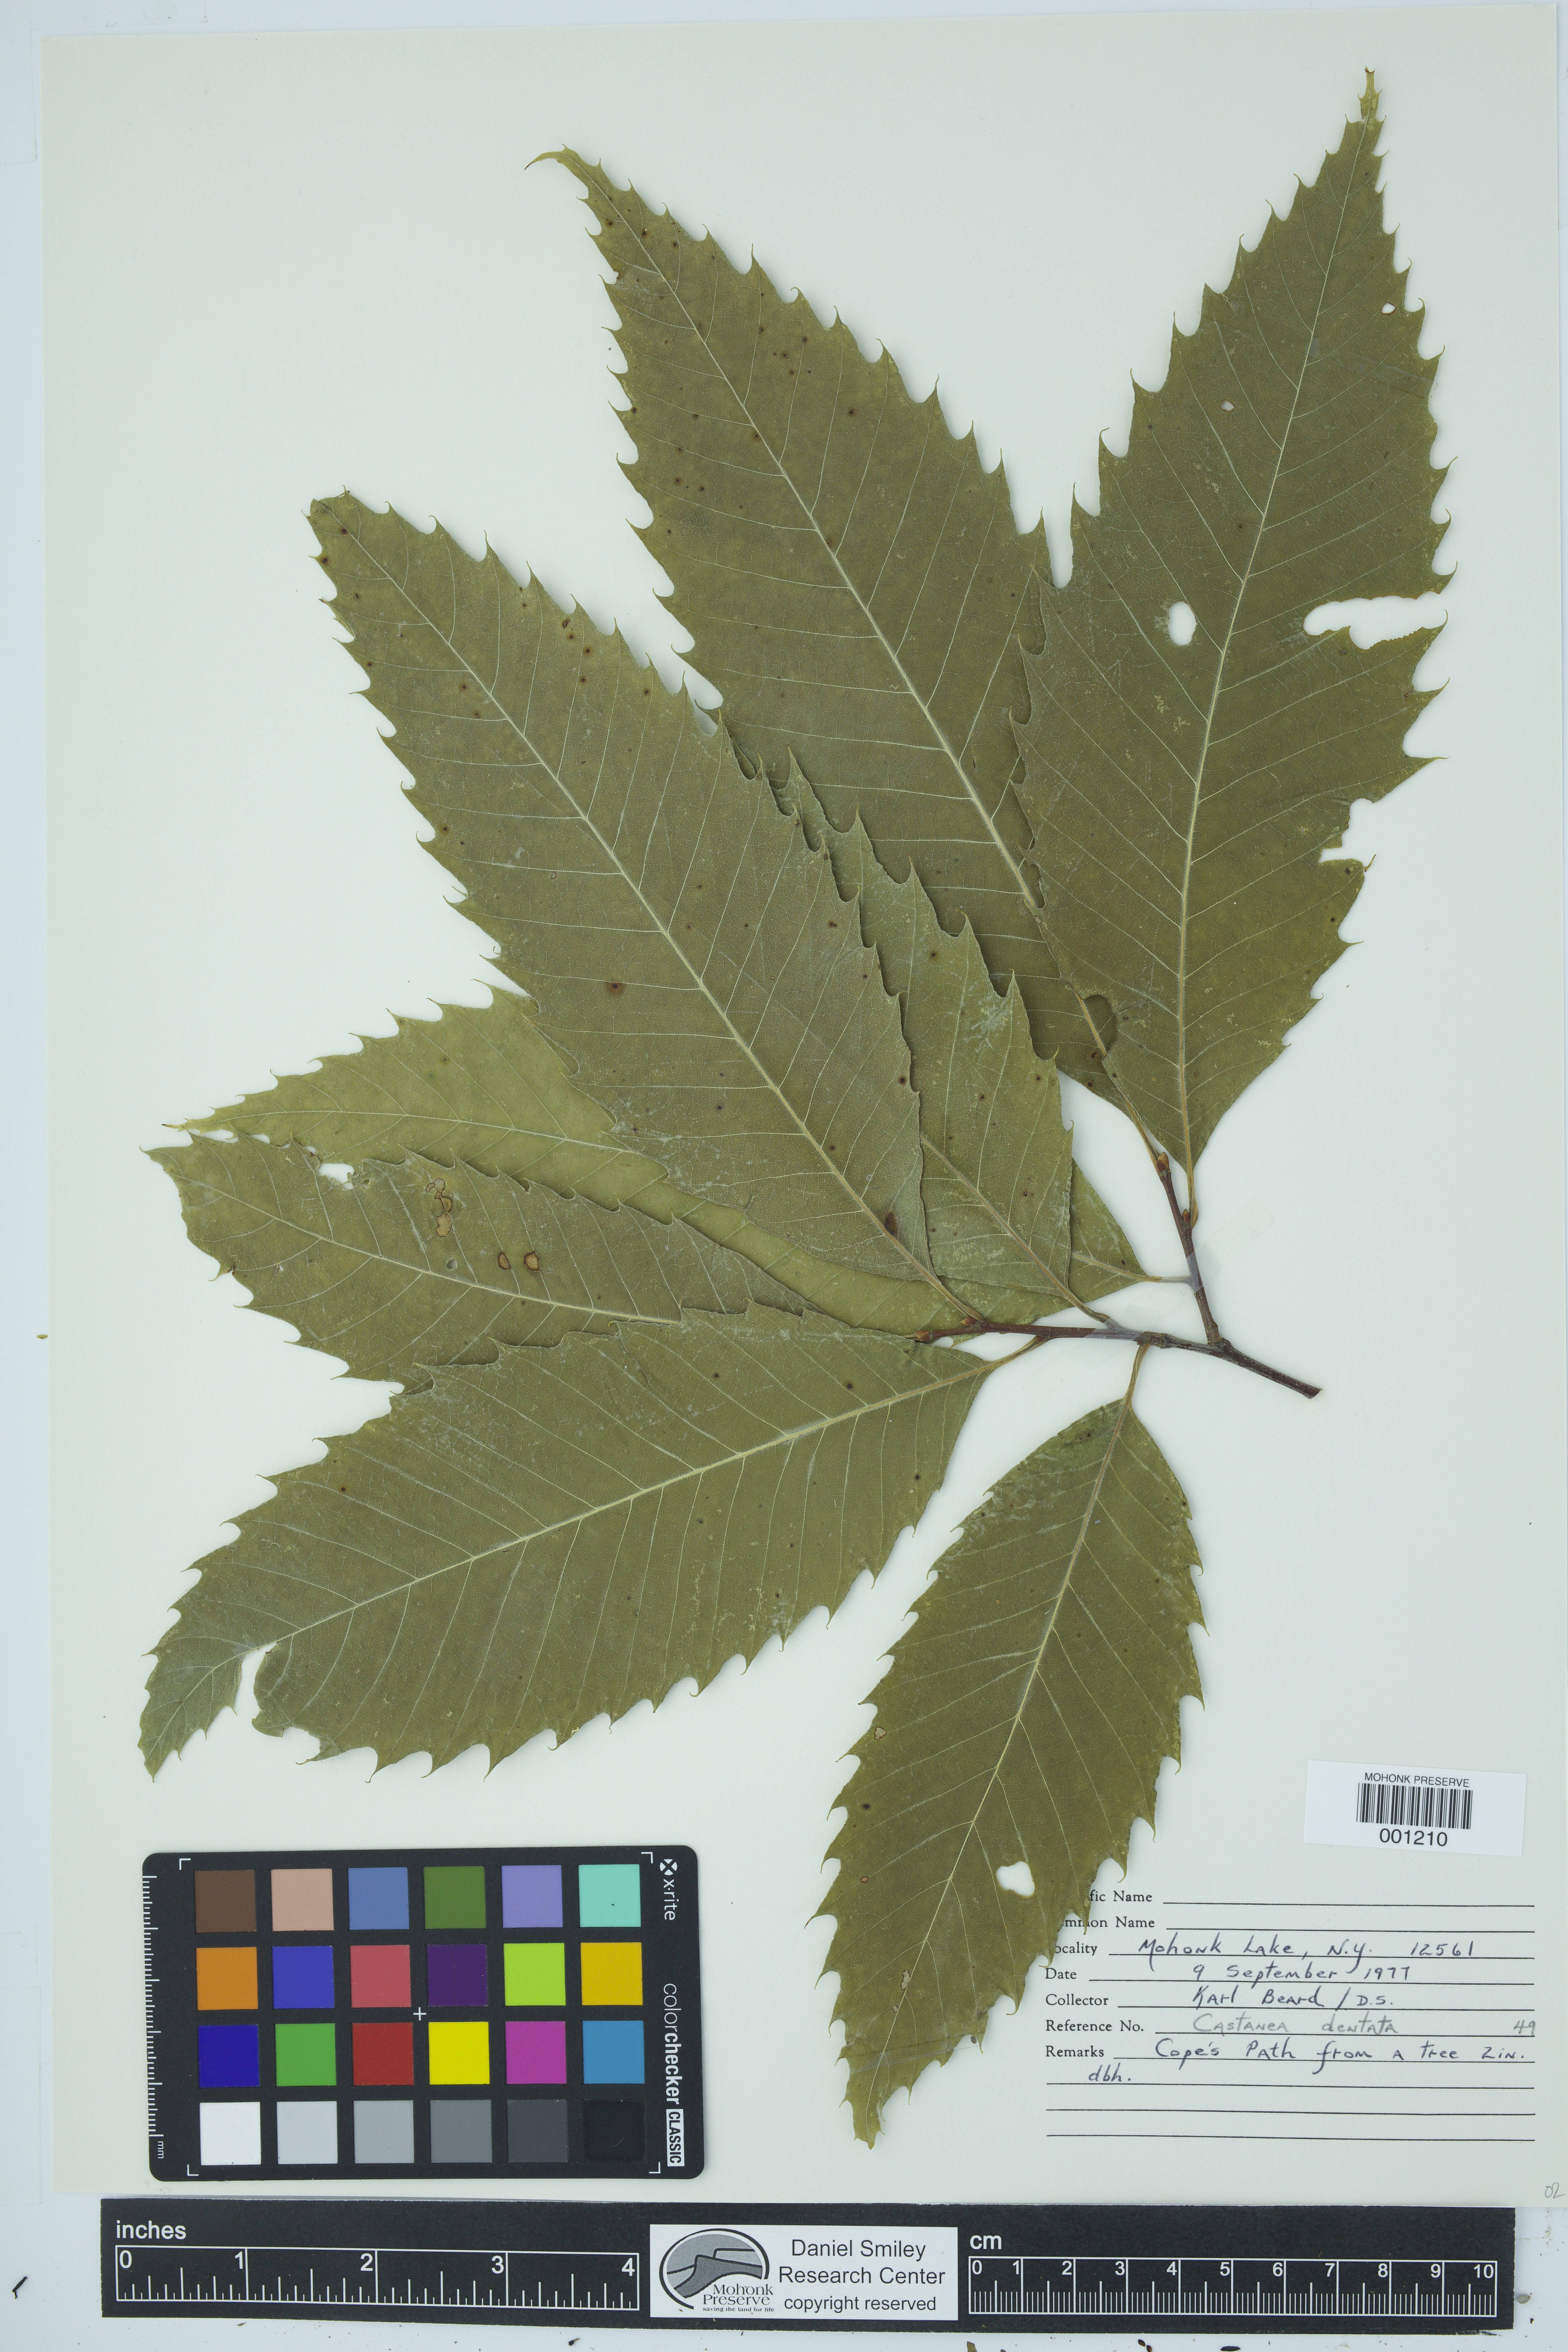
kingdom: Plantae
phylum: Tracheophyta
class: Magnoliopsida
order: Fagales
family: Fagaceae
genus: Castanea
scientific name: Castanea dentata
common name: American chestnut
